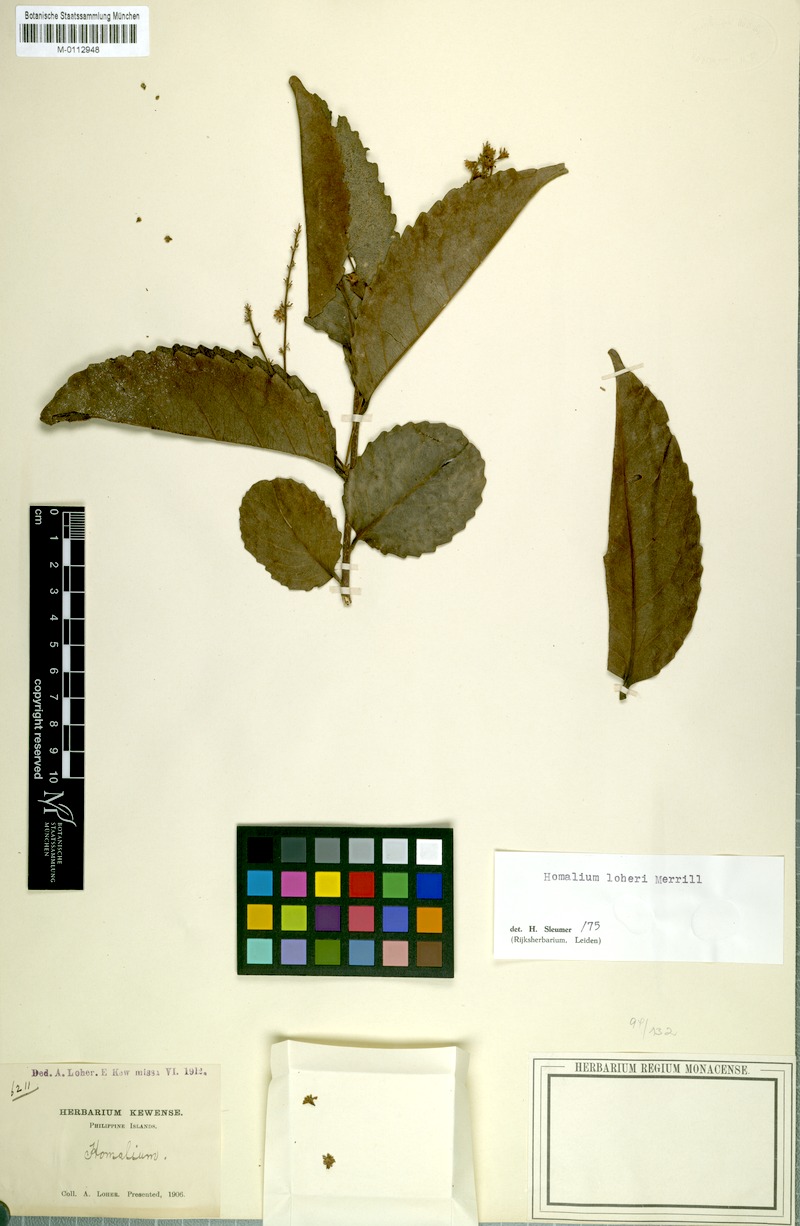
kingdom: Plantae
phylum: Tracheophyta
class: Magnoliopsida
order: Malpighiales
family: Salicaceae
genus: Homalium
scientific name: Homalium barandae
